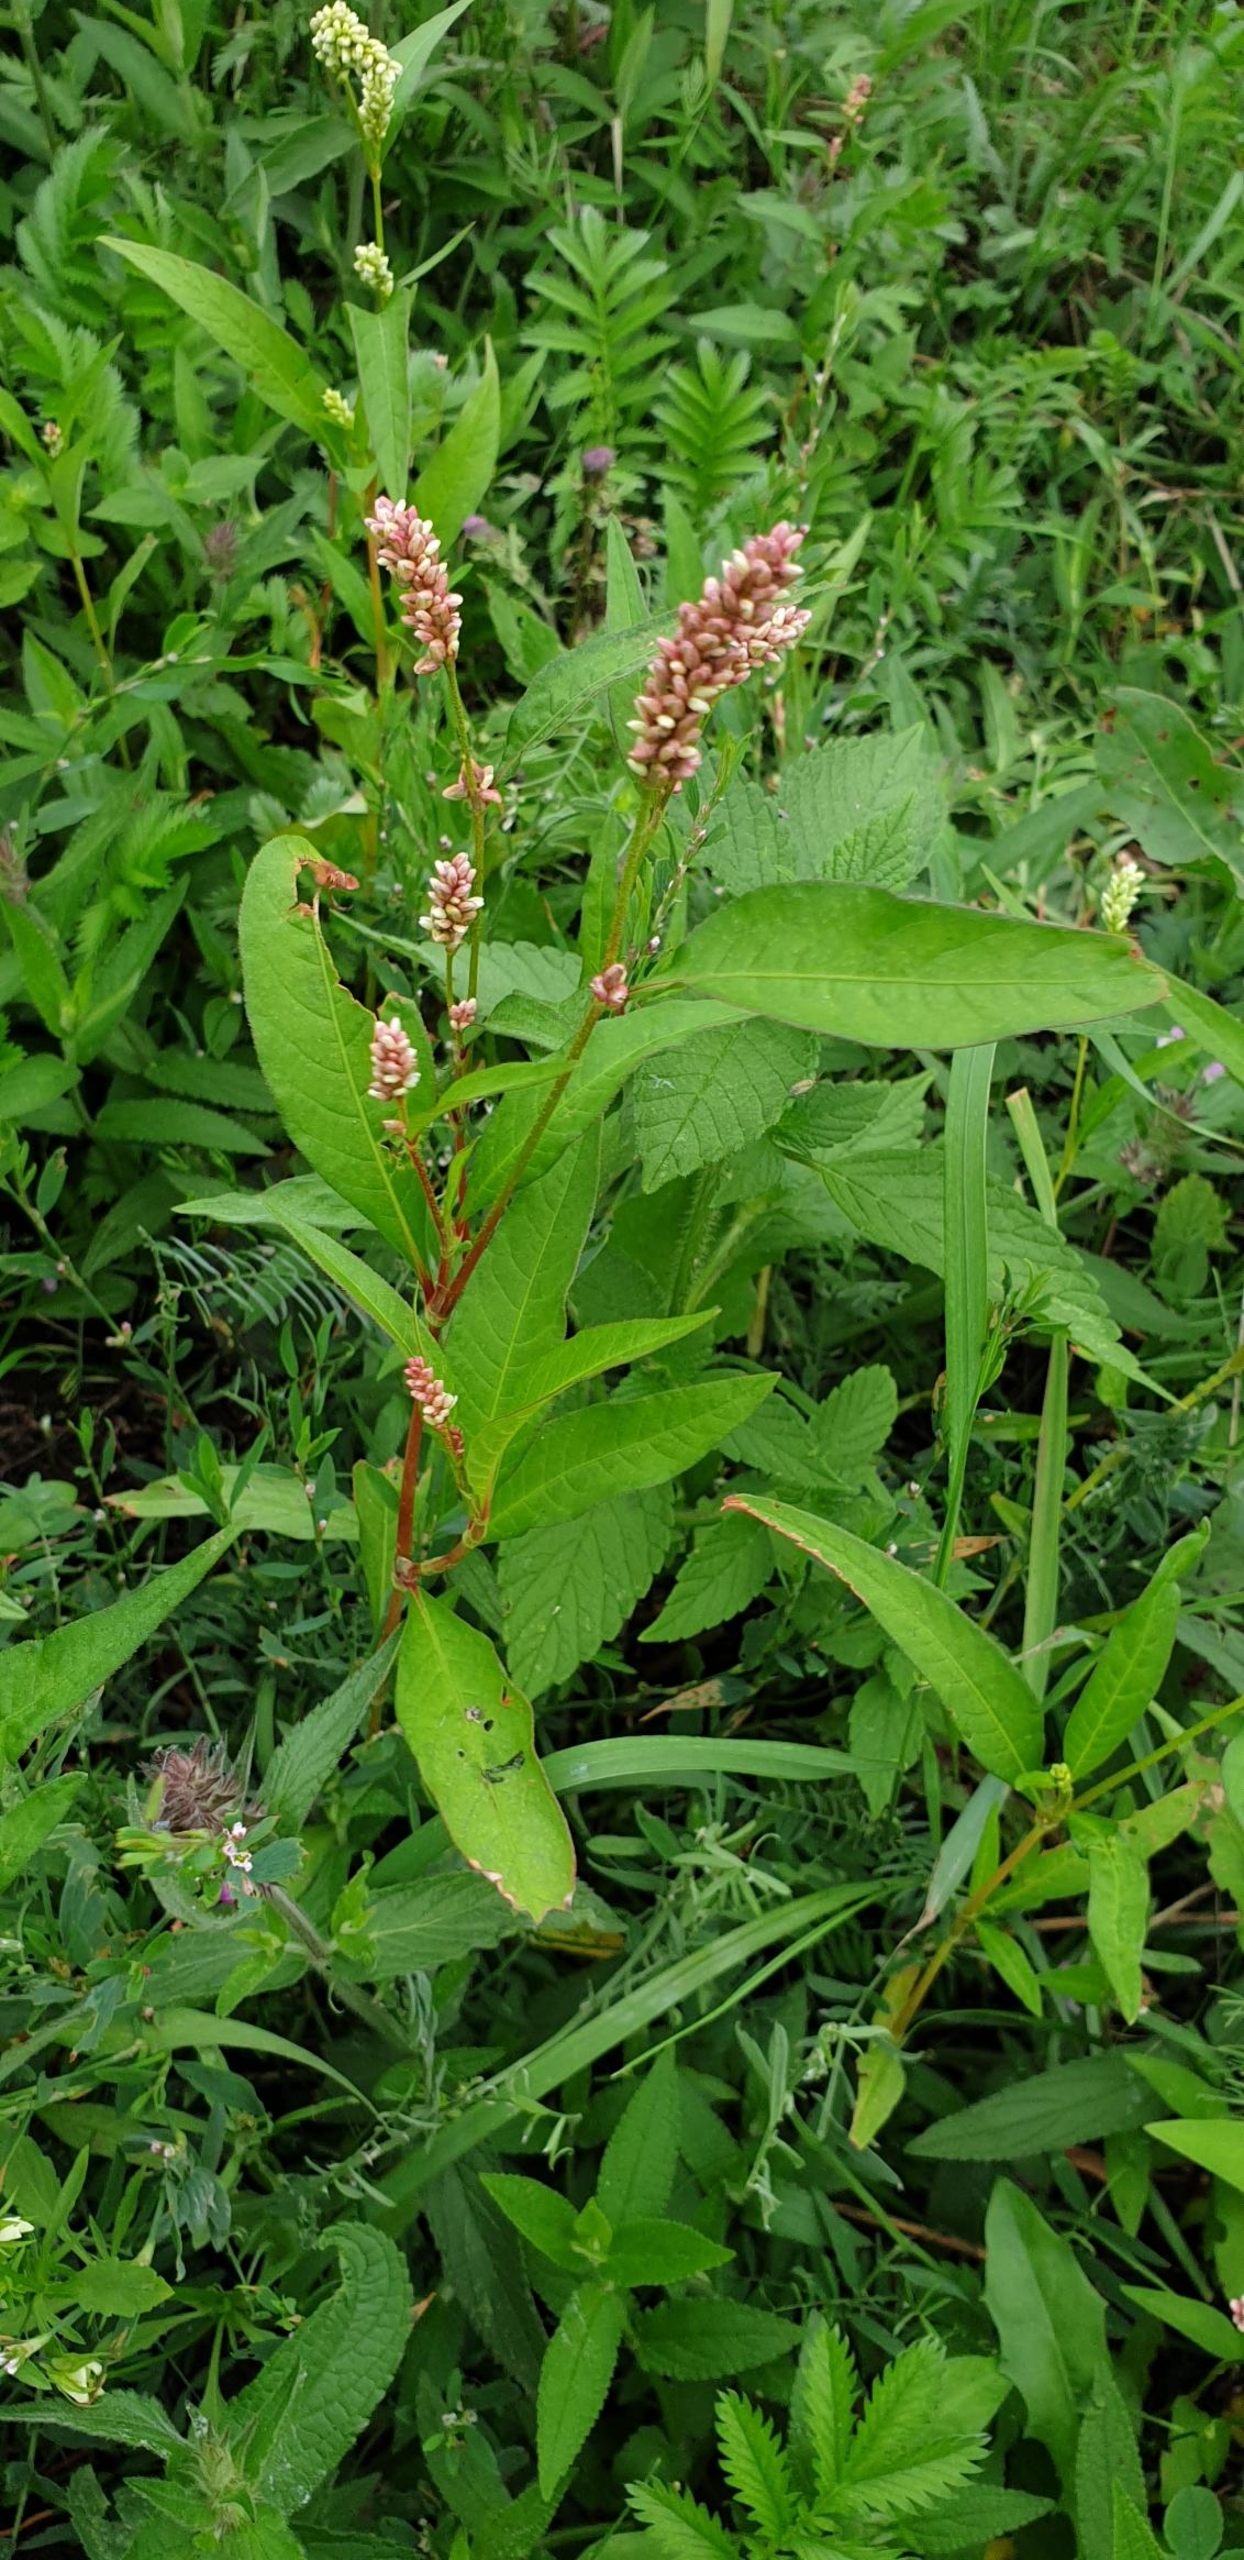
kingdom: Plantae
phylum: Tracheophyta
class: Magnoliopsida
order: Caryophyllales
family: Polygonaceae
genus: Persicaria
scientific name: Persicaria lapathifolia
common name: Bleg pileurt
